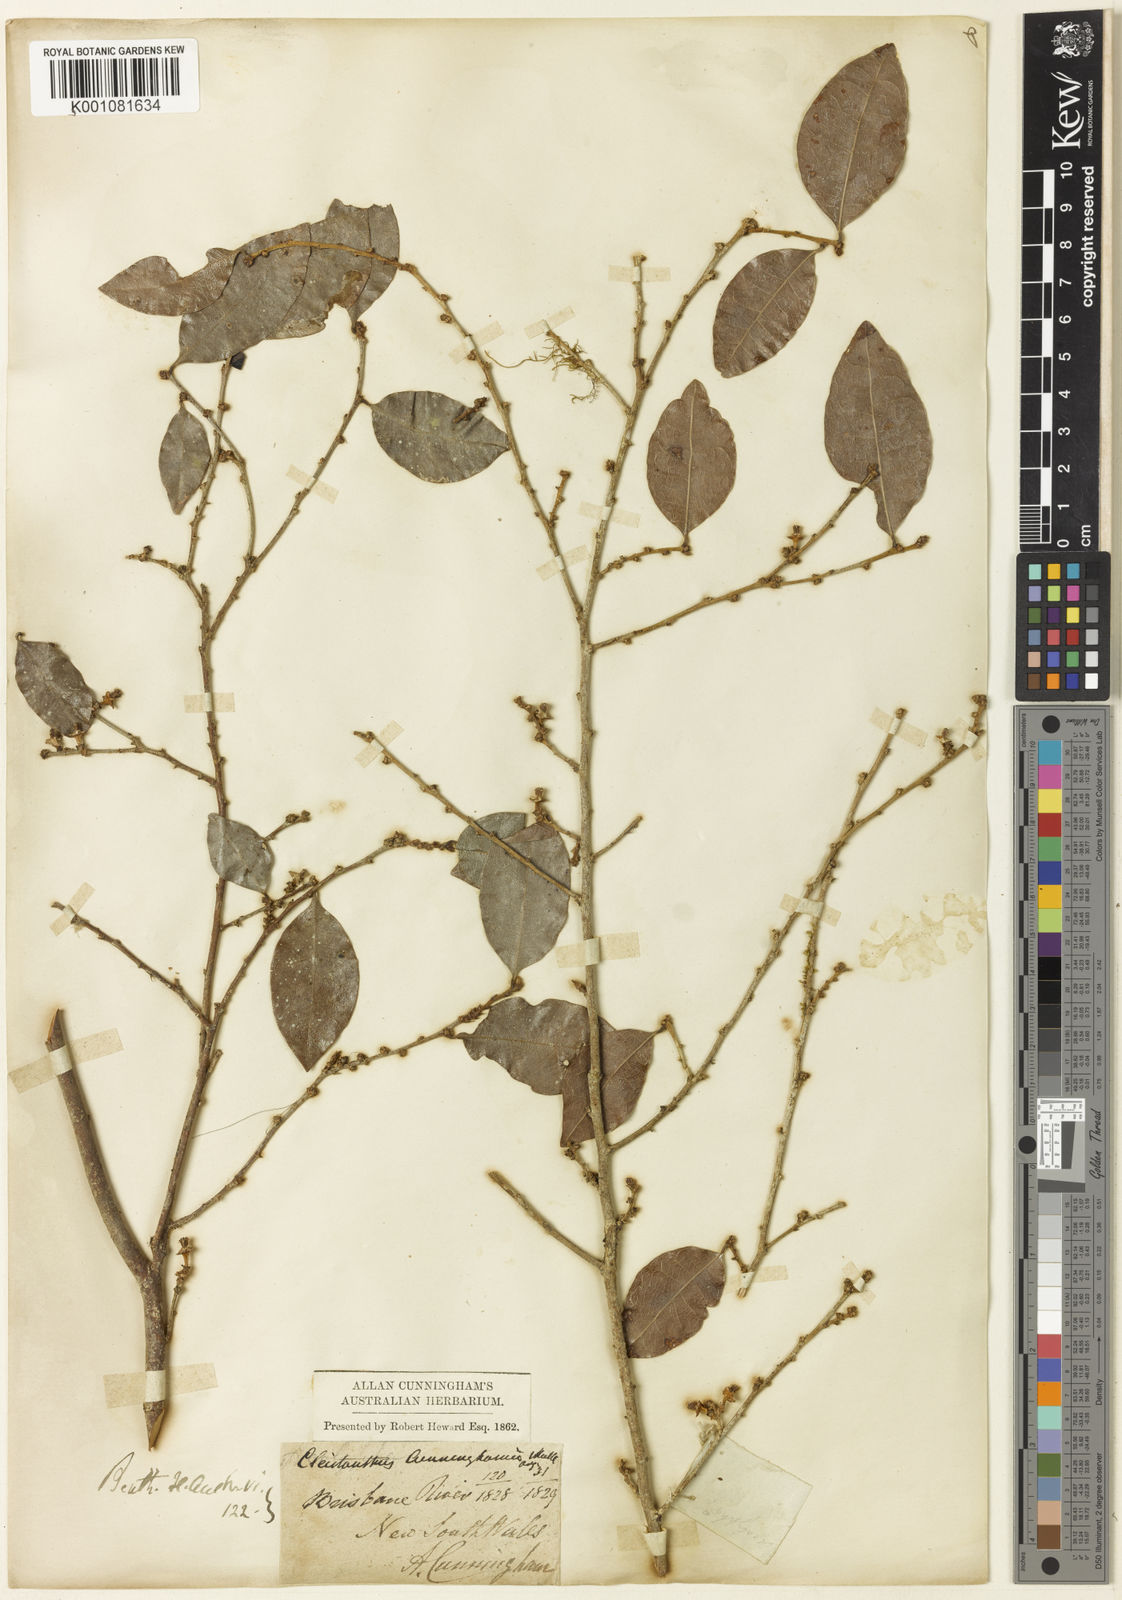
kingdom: Plantae
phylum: Tracheophyta
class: Magnoliopsida
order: Malpighiales
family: Phyllanthaceae
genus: Cleistanthus
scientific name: Cleistanthus
